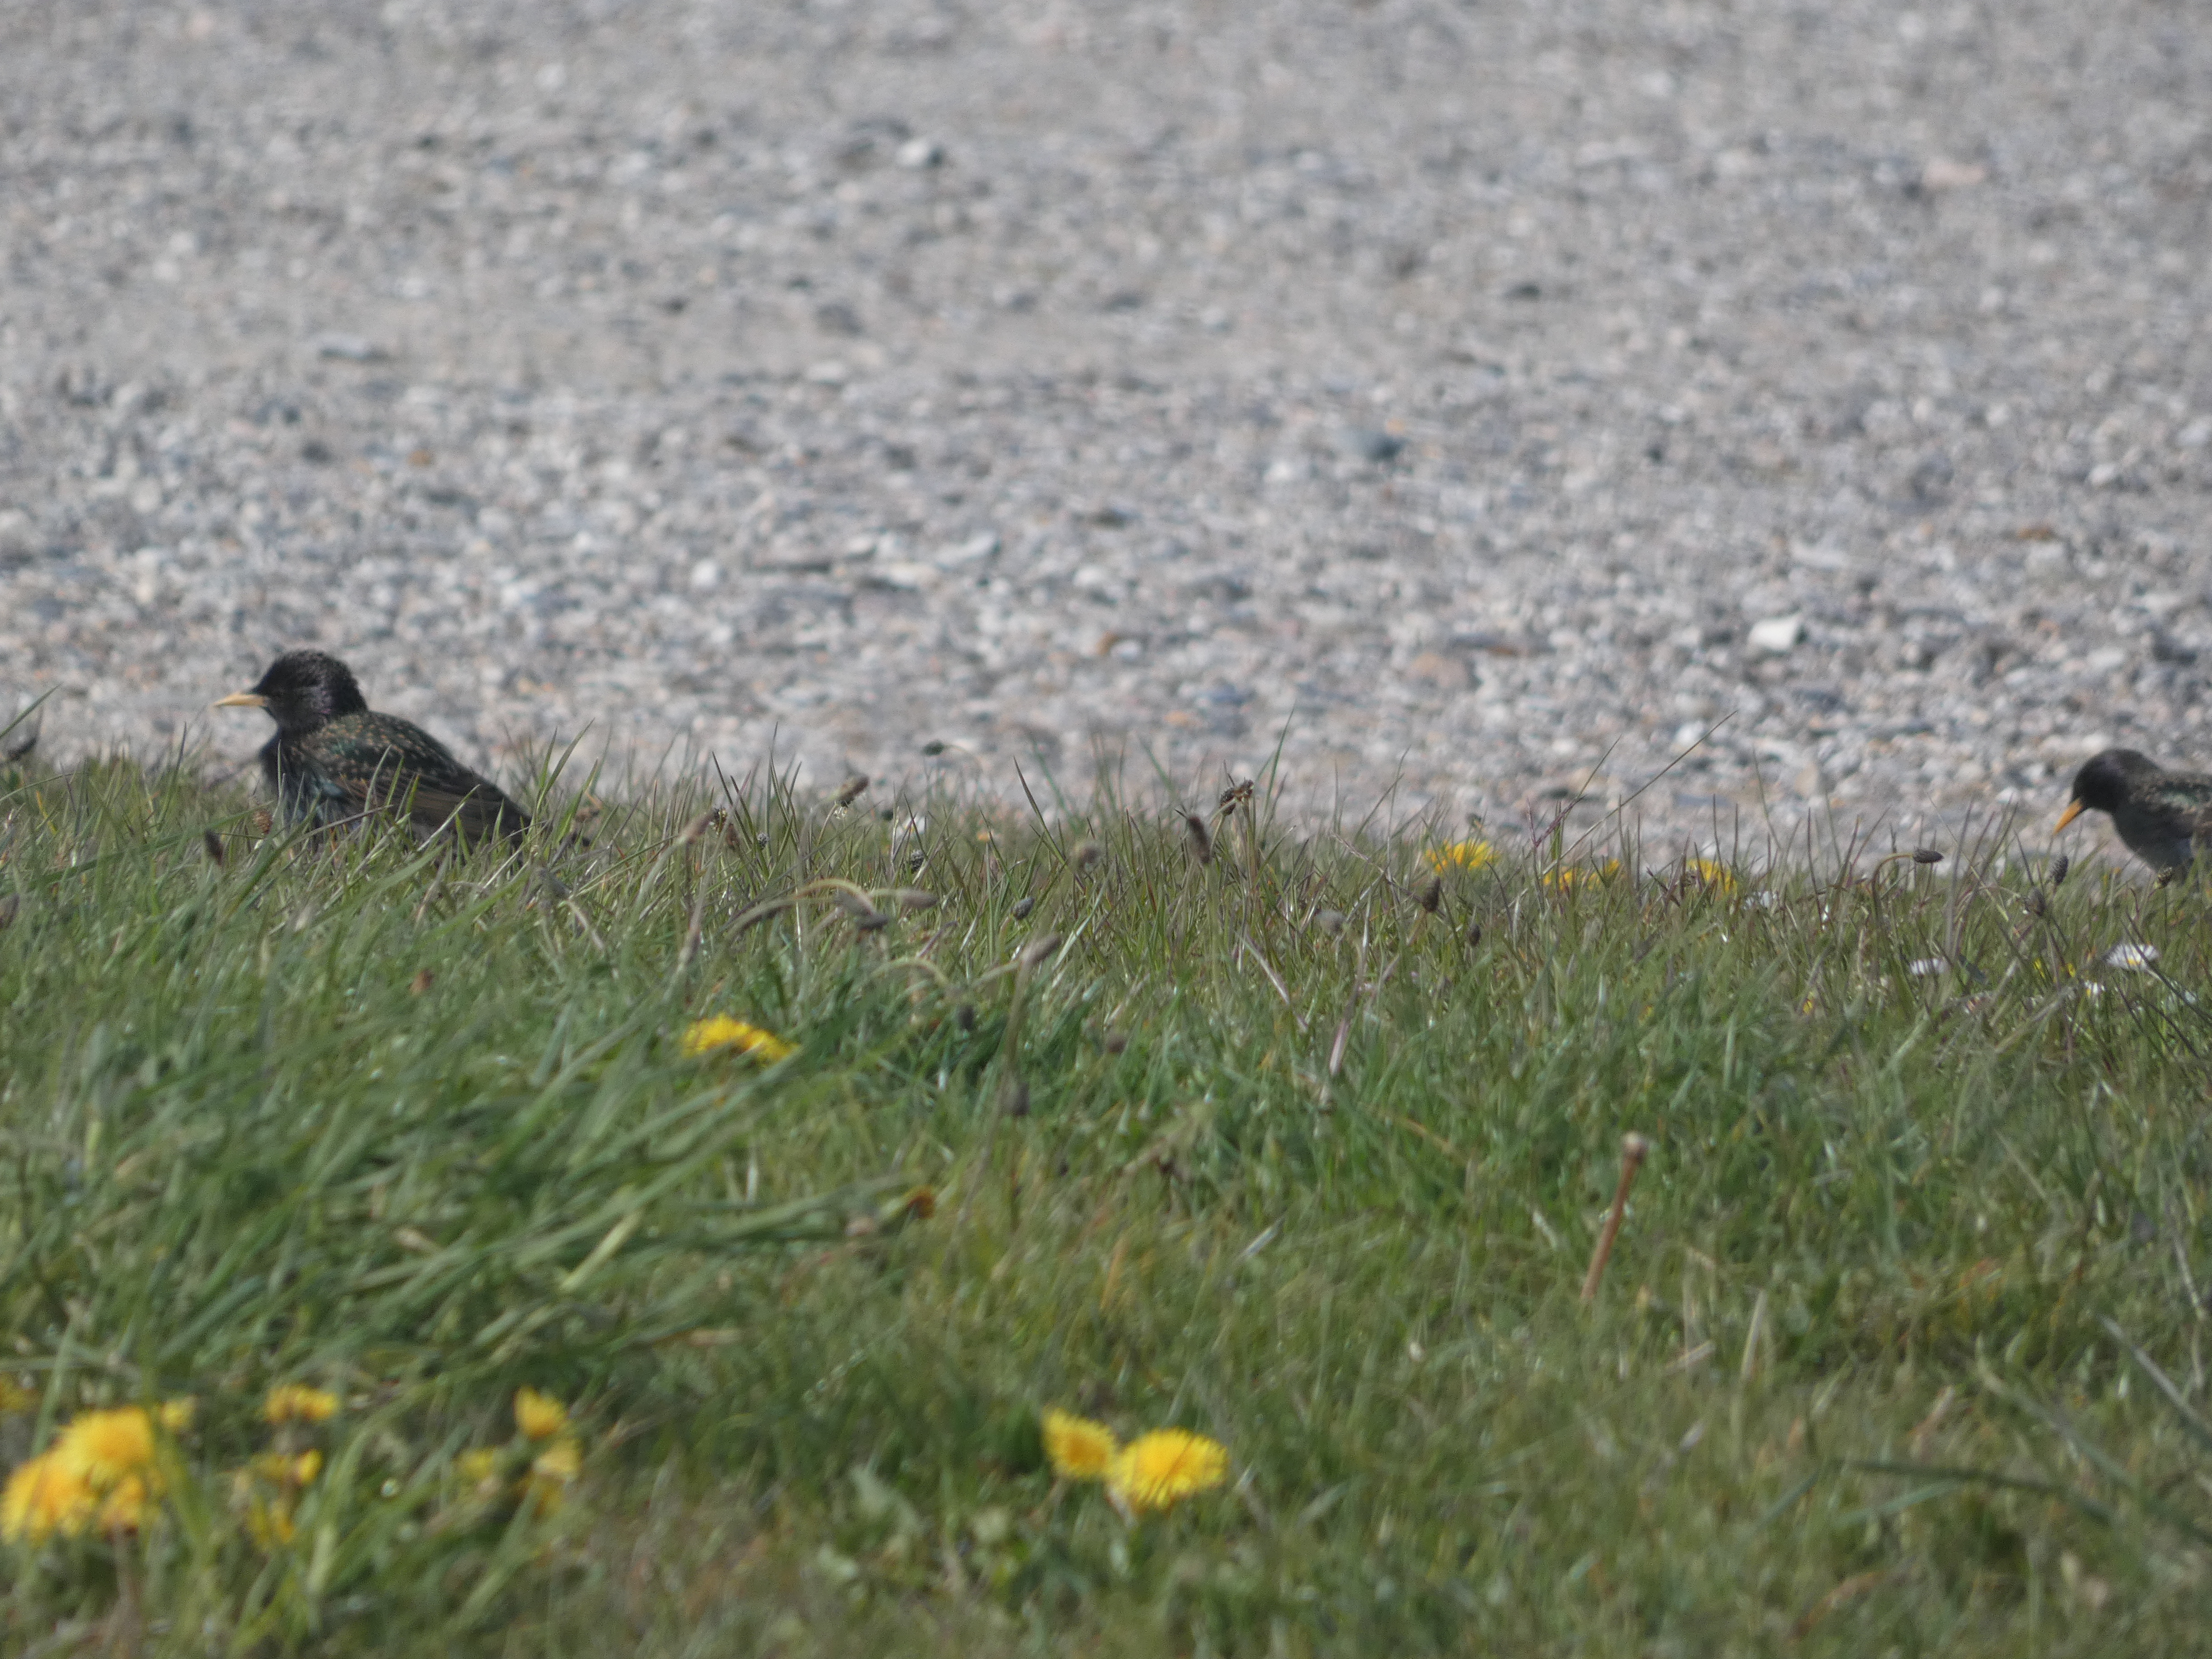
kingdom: Animalia
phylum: Chordata
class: Aves
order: Passeriformes
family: Sturnidae
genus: Sturnus
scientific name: Sturnus vulgaris
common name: Stær
